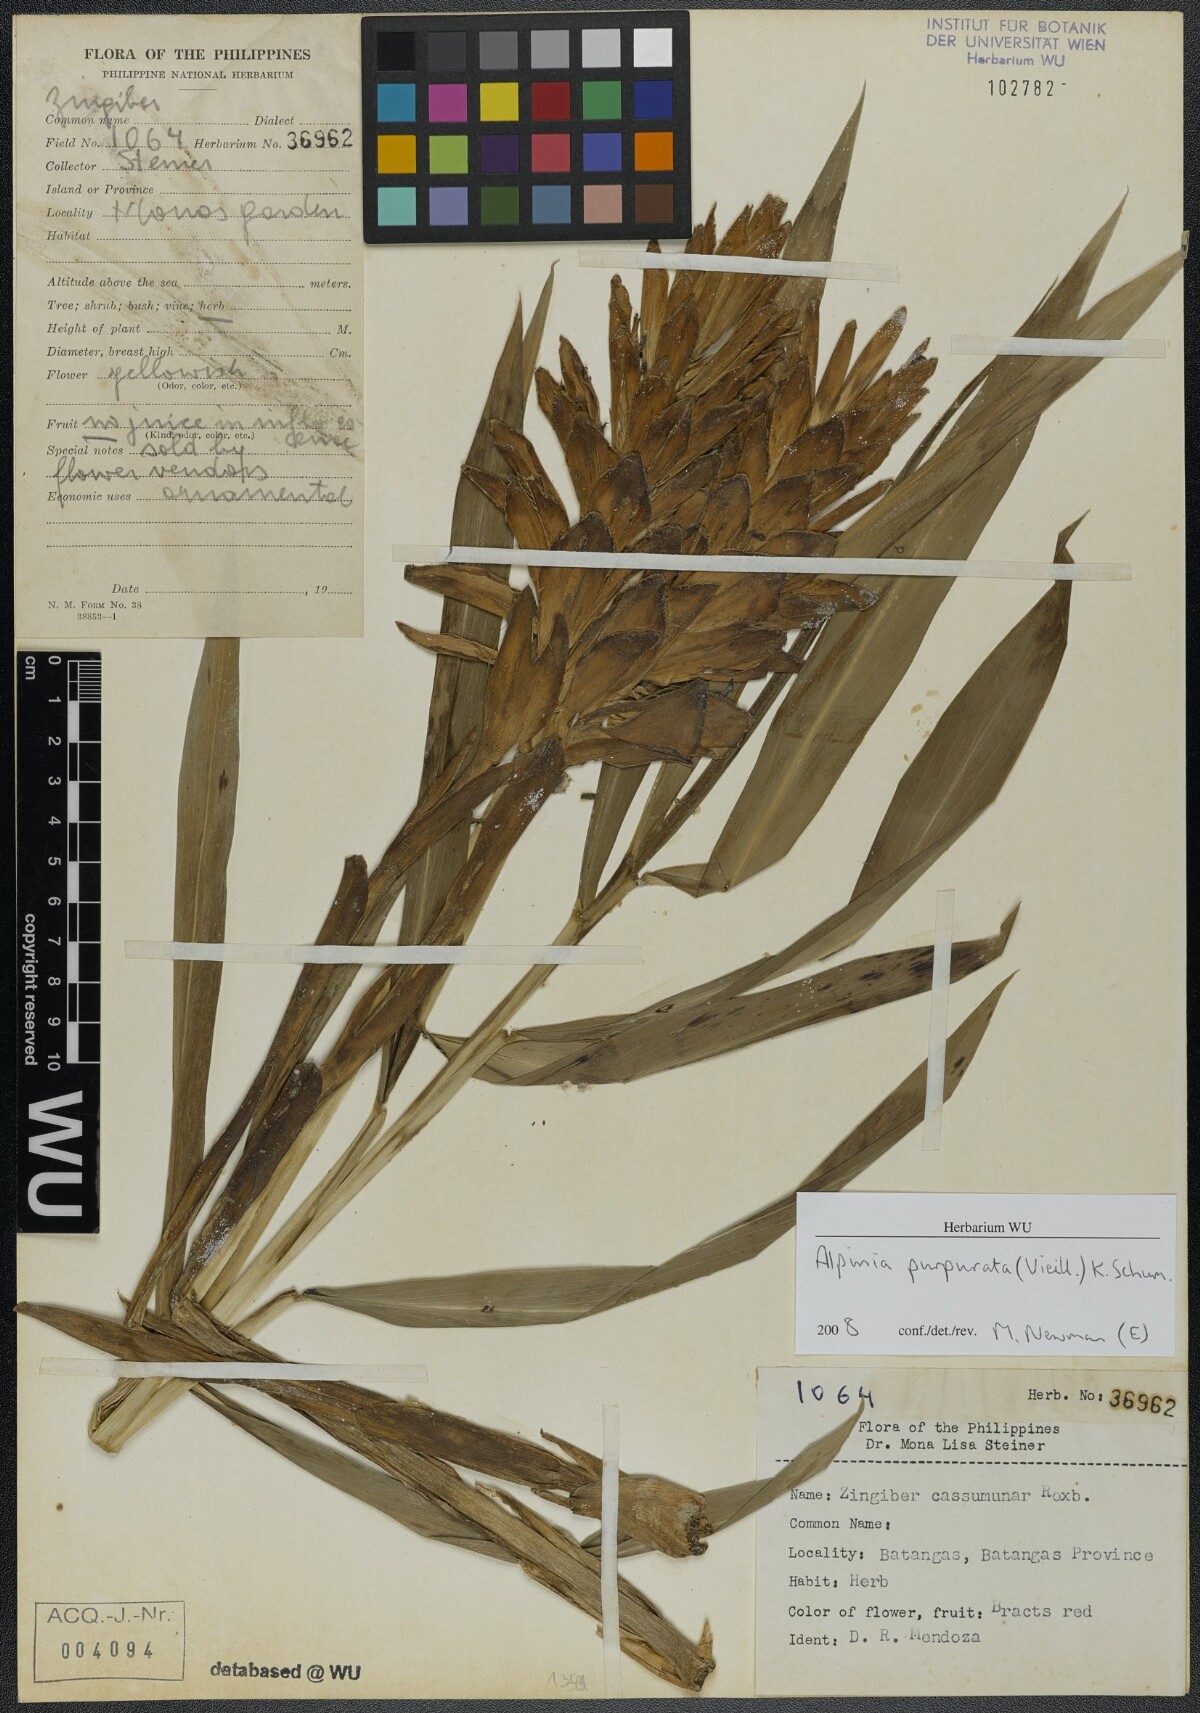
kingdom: Plantae
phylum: Tracheophyta
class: Liliopsida
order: Zingiberales
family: Zingiberaceae
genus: Alpinia
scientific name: Alpinia purpurata
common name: Red ginger
